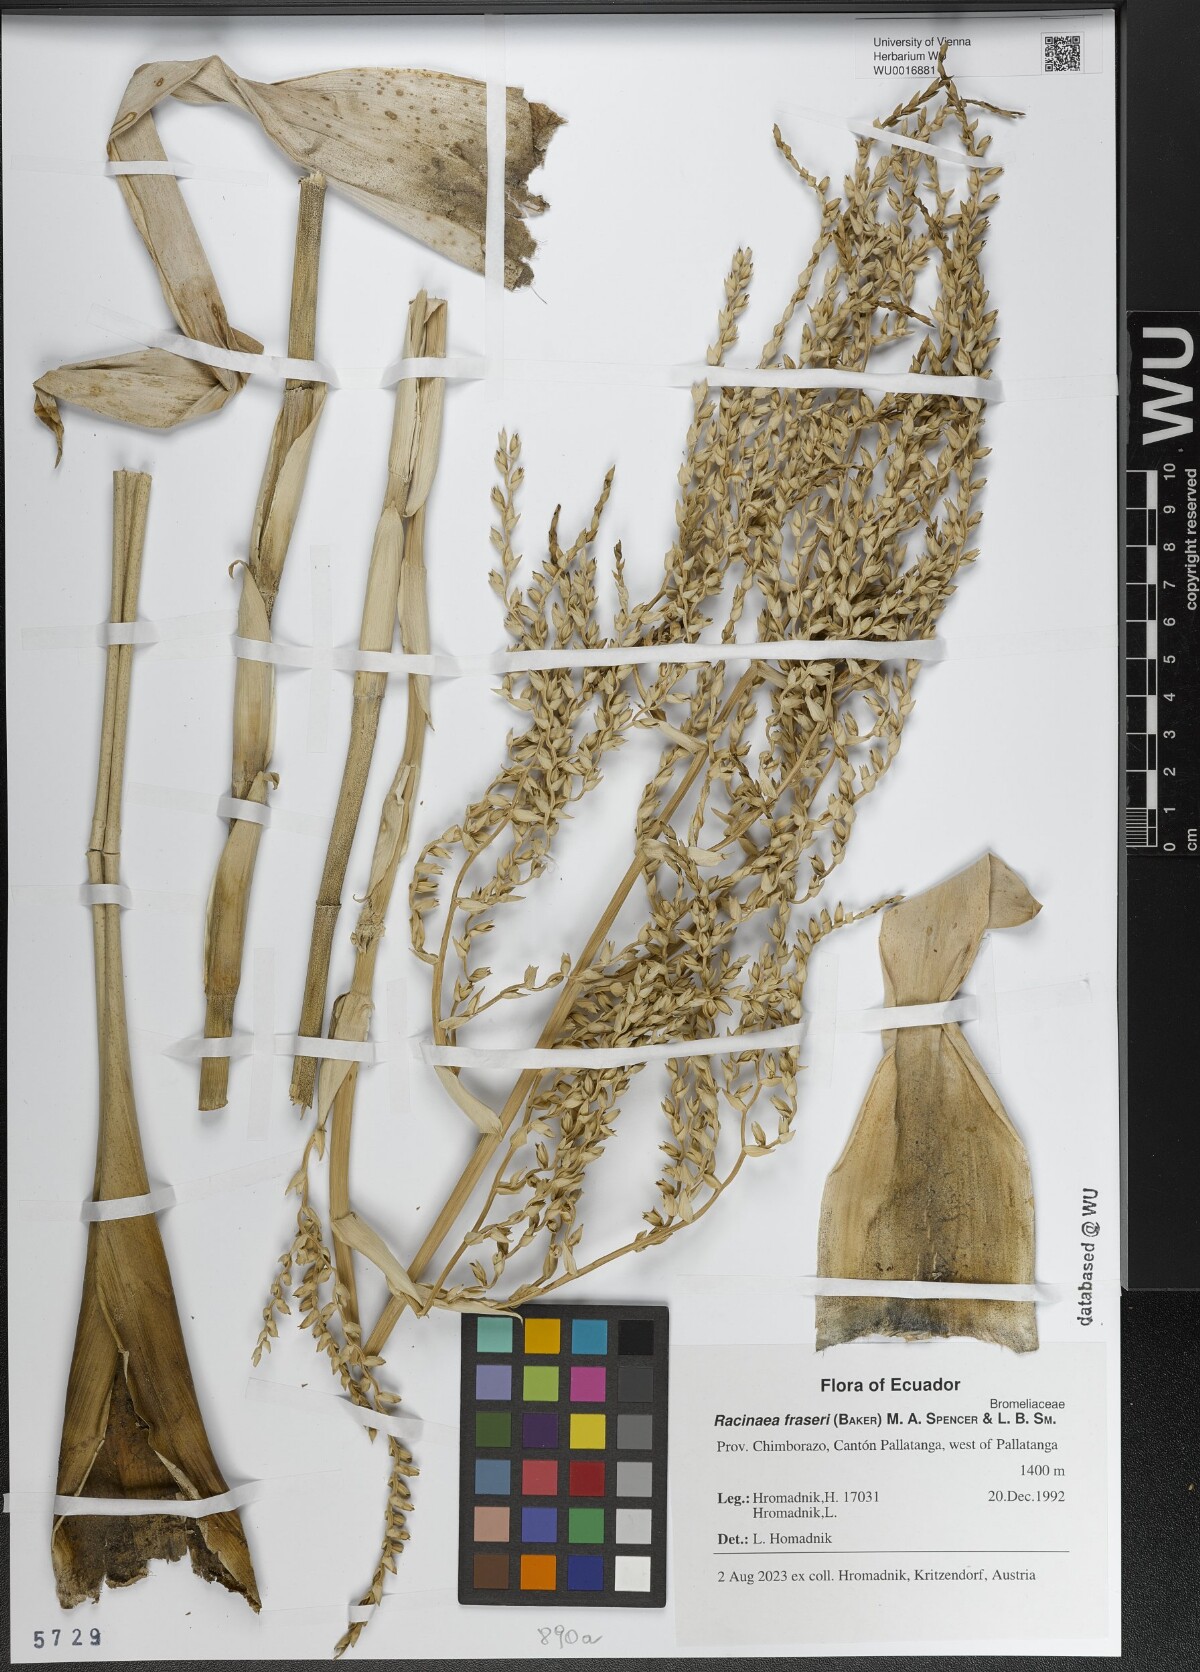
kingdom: Plantae
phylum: Tracheophyta
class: Liliopsida
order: Poales
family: Bromeliaceae
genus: Racinaea
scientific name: Racinaea fraseri
